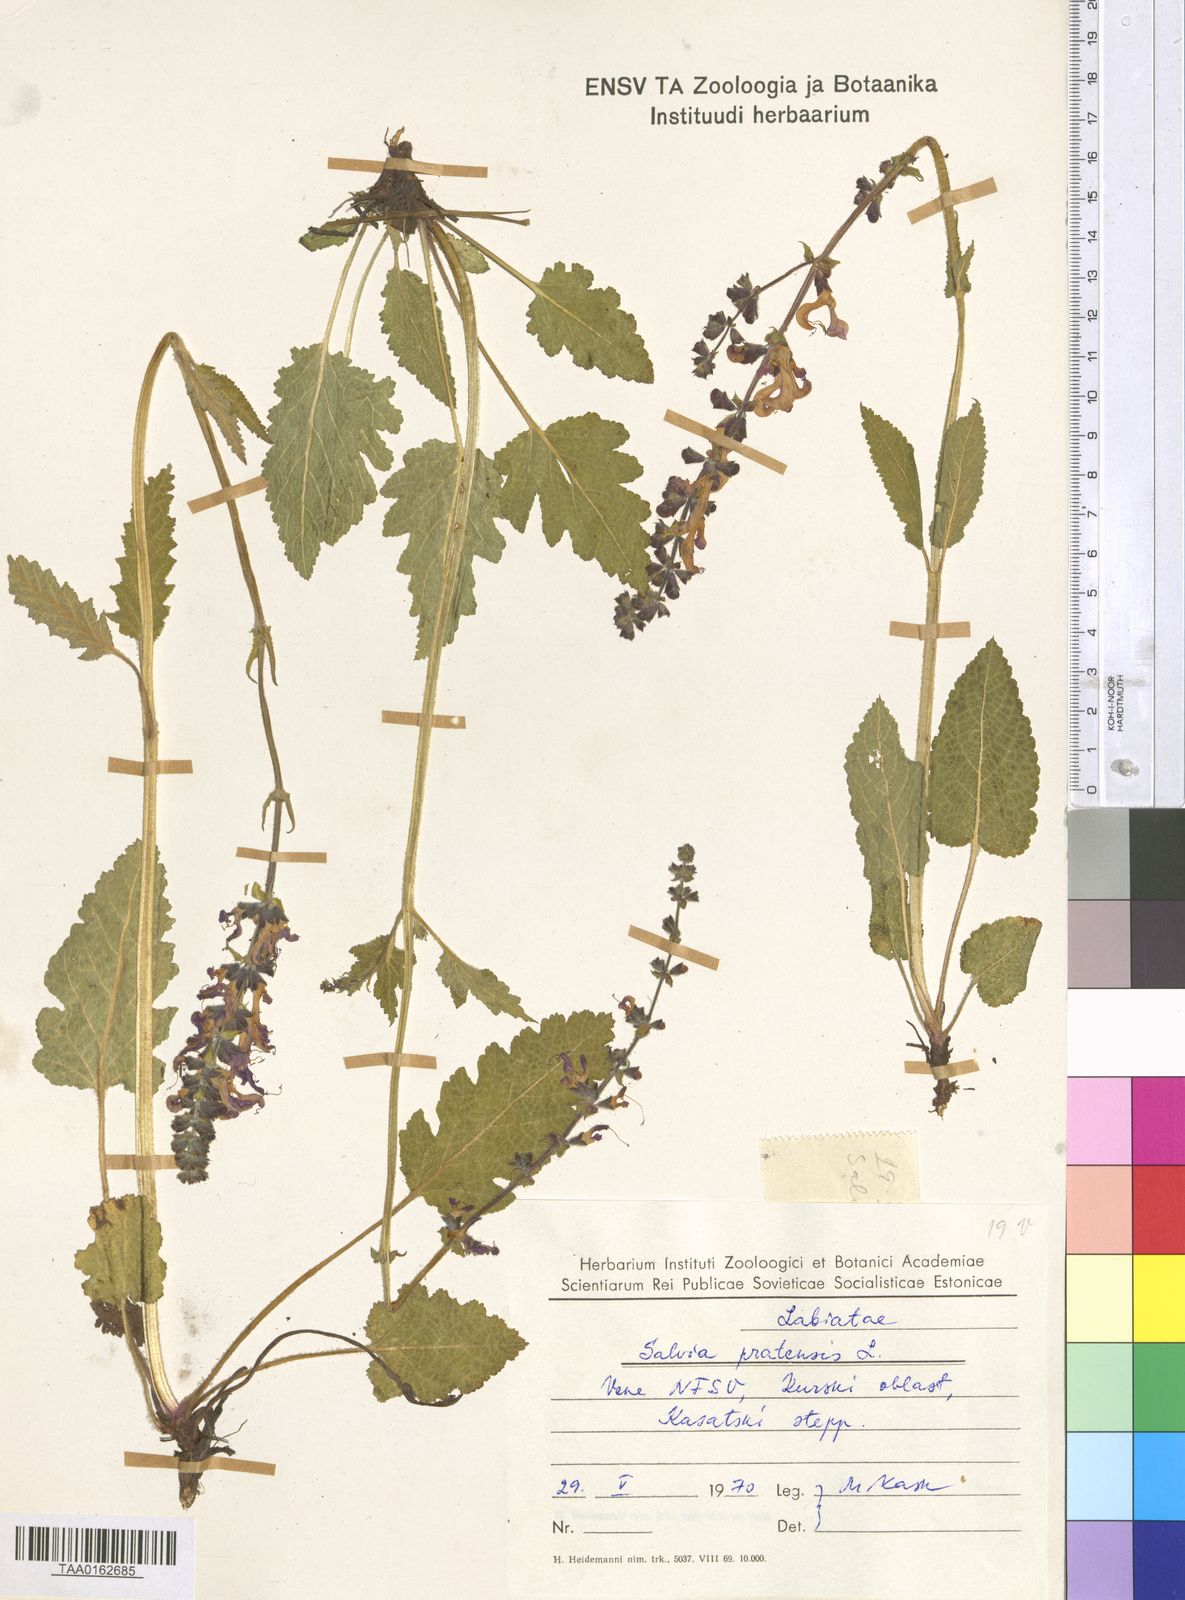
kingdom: Plantae
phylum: Tracheophyta
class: Magnoliopsida
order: Lamiales
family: Lamiaceae
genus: Salvia
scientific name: Salvia pratensis
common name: Meadow sage
